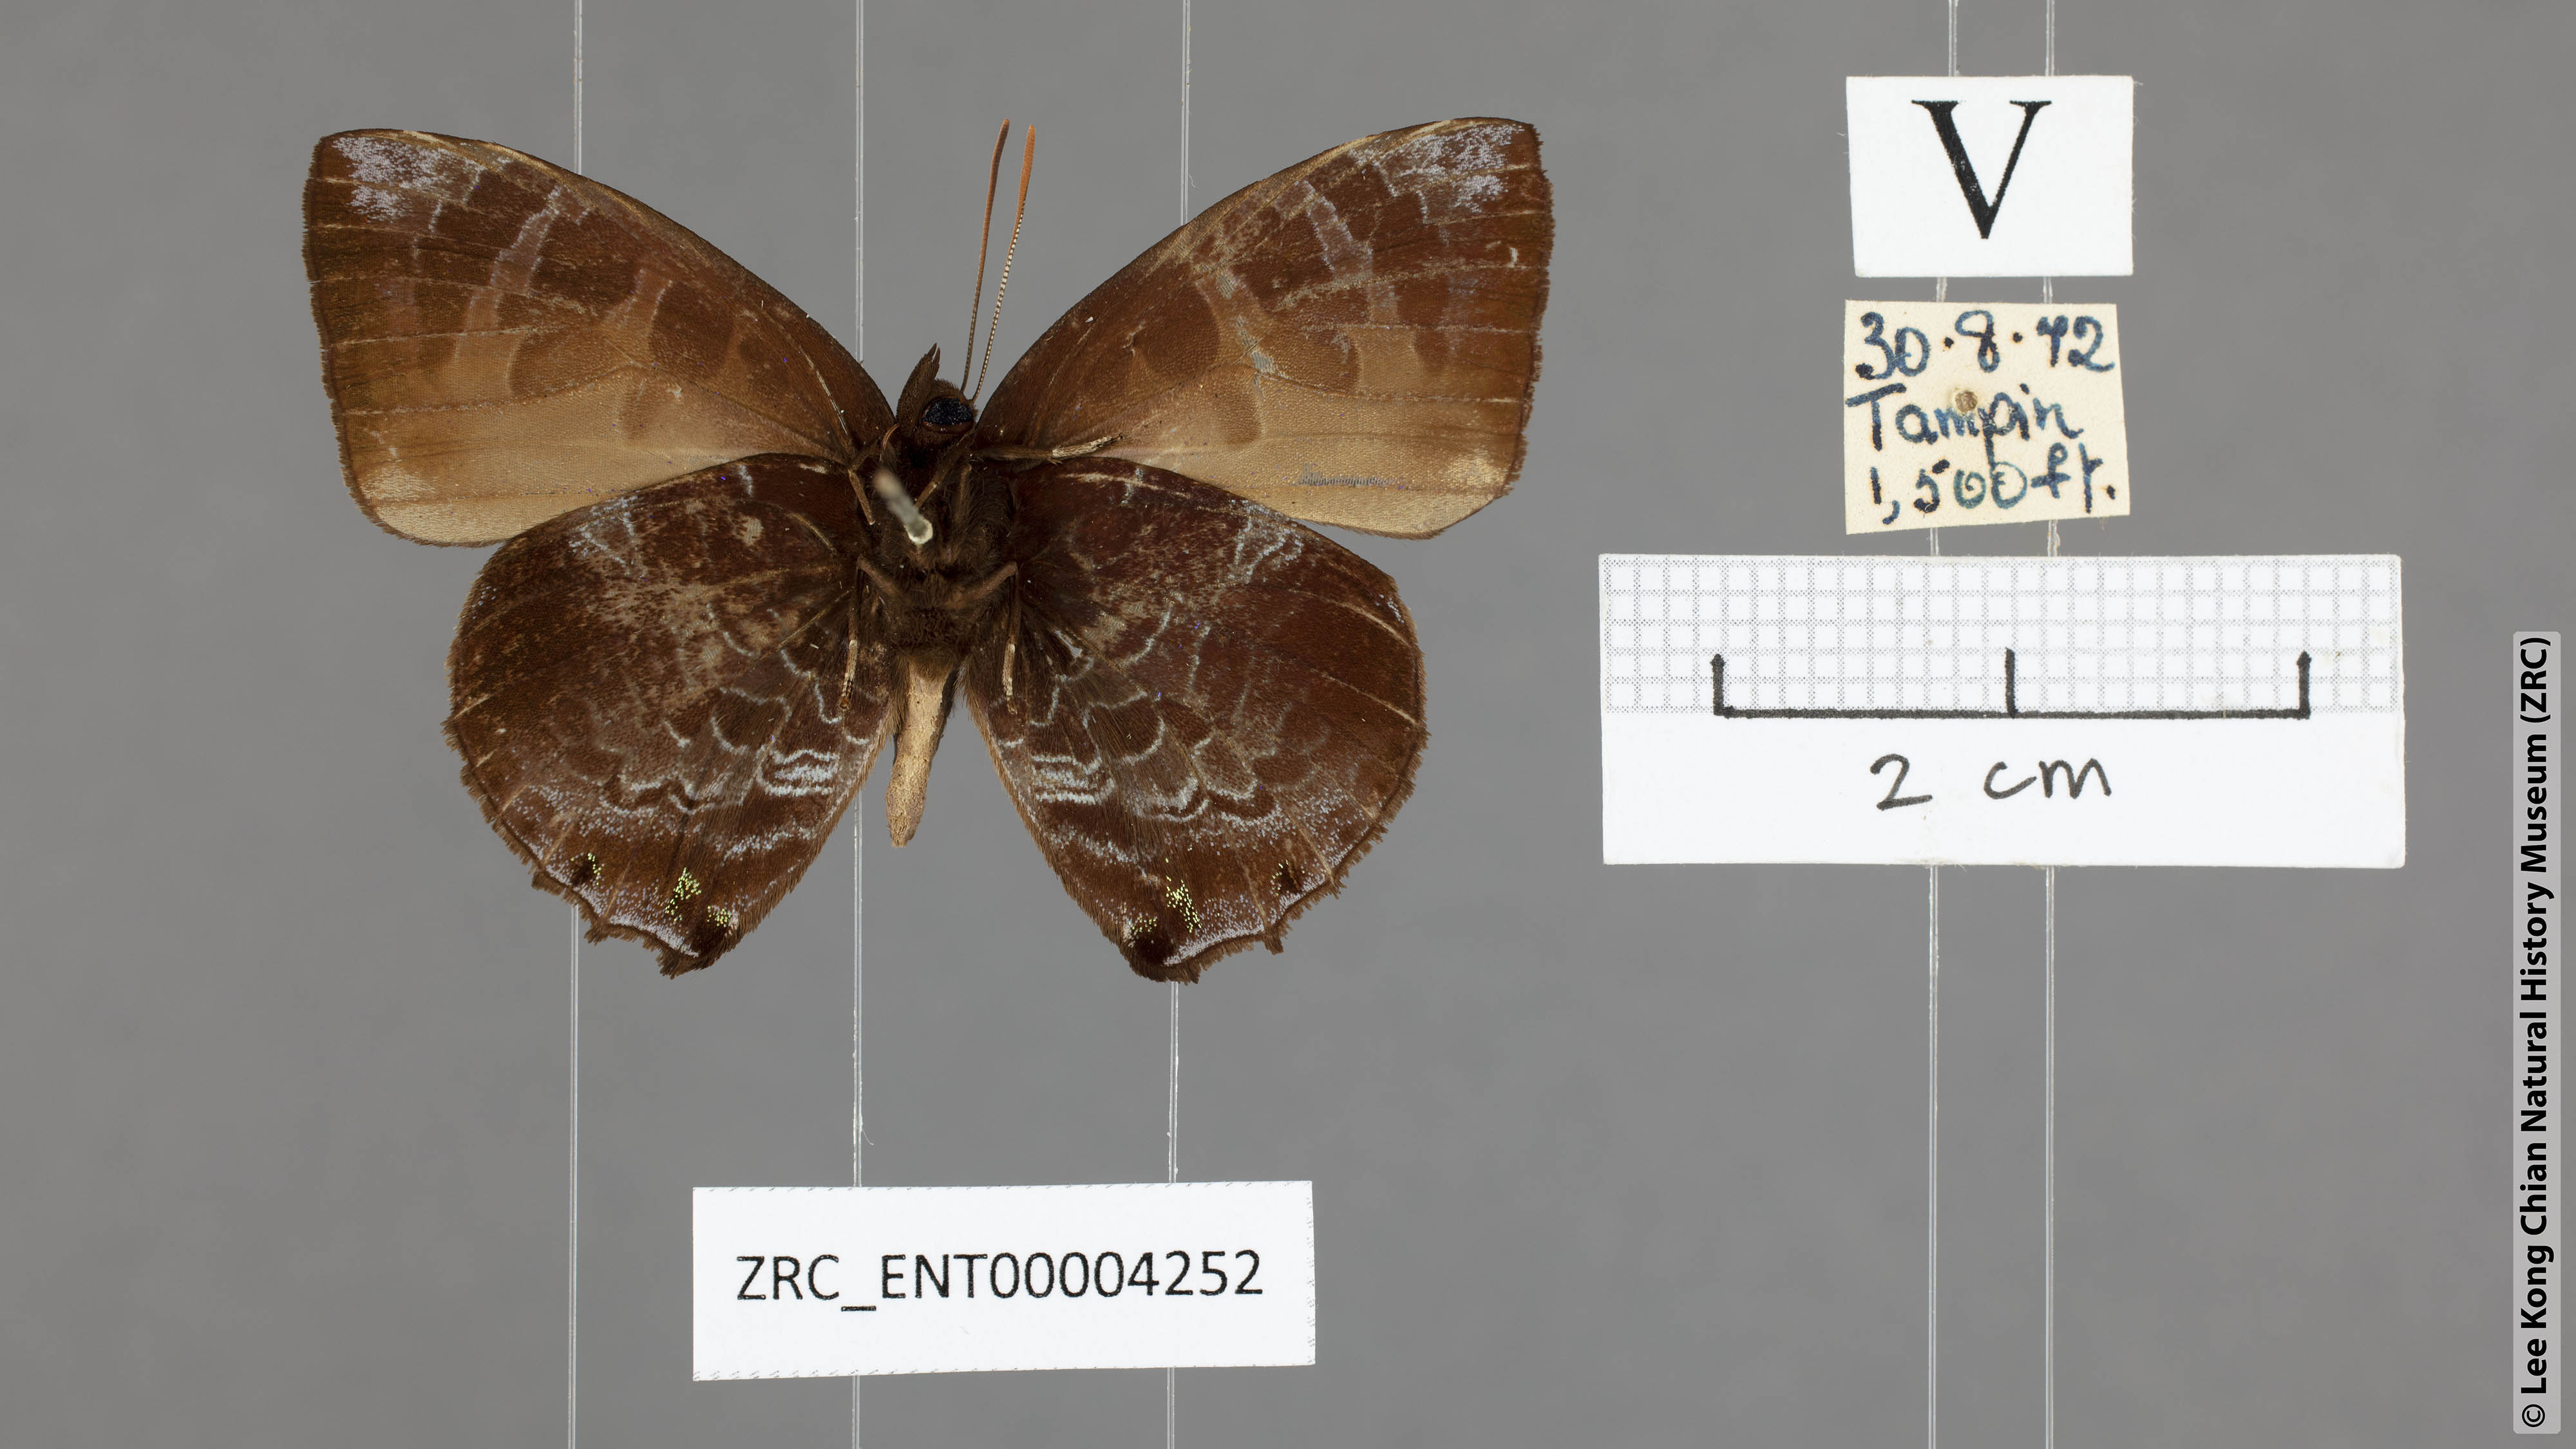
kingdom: Animalia
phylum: Arthropoda
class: Insecta
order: Lepidoptera
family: Lycaenidae
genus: Flos
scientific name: Flos
